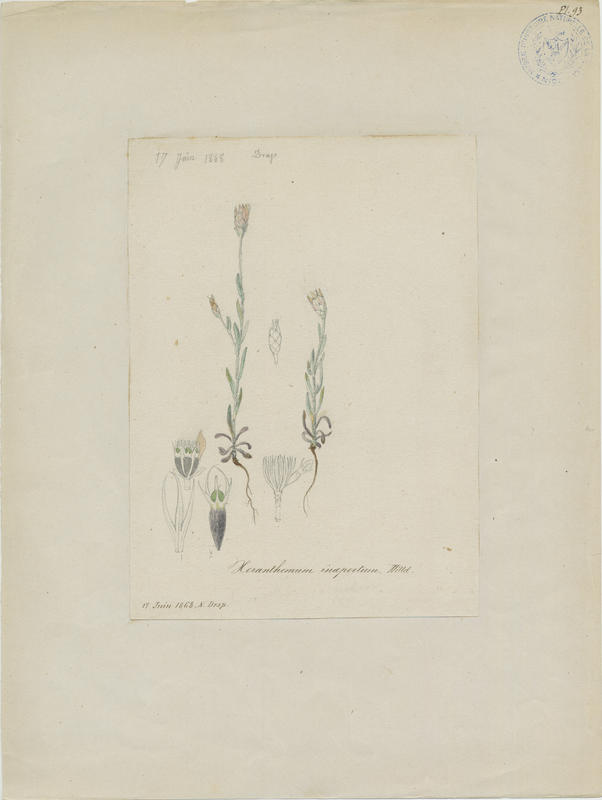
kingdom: Plantae
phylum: Tracheophyta
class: Magnoliopsida
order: Asterales
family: Asteraceae
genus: Xeranthemum
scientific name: Xeranthemum inapterum
